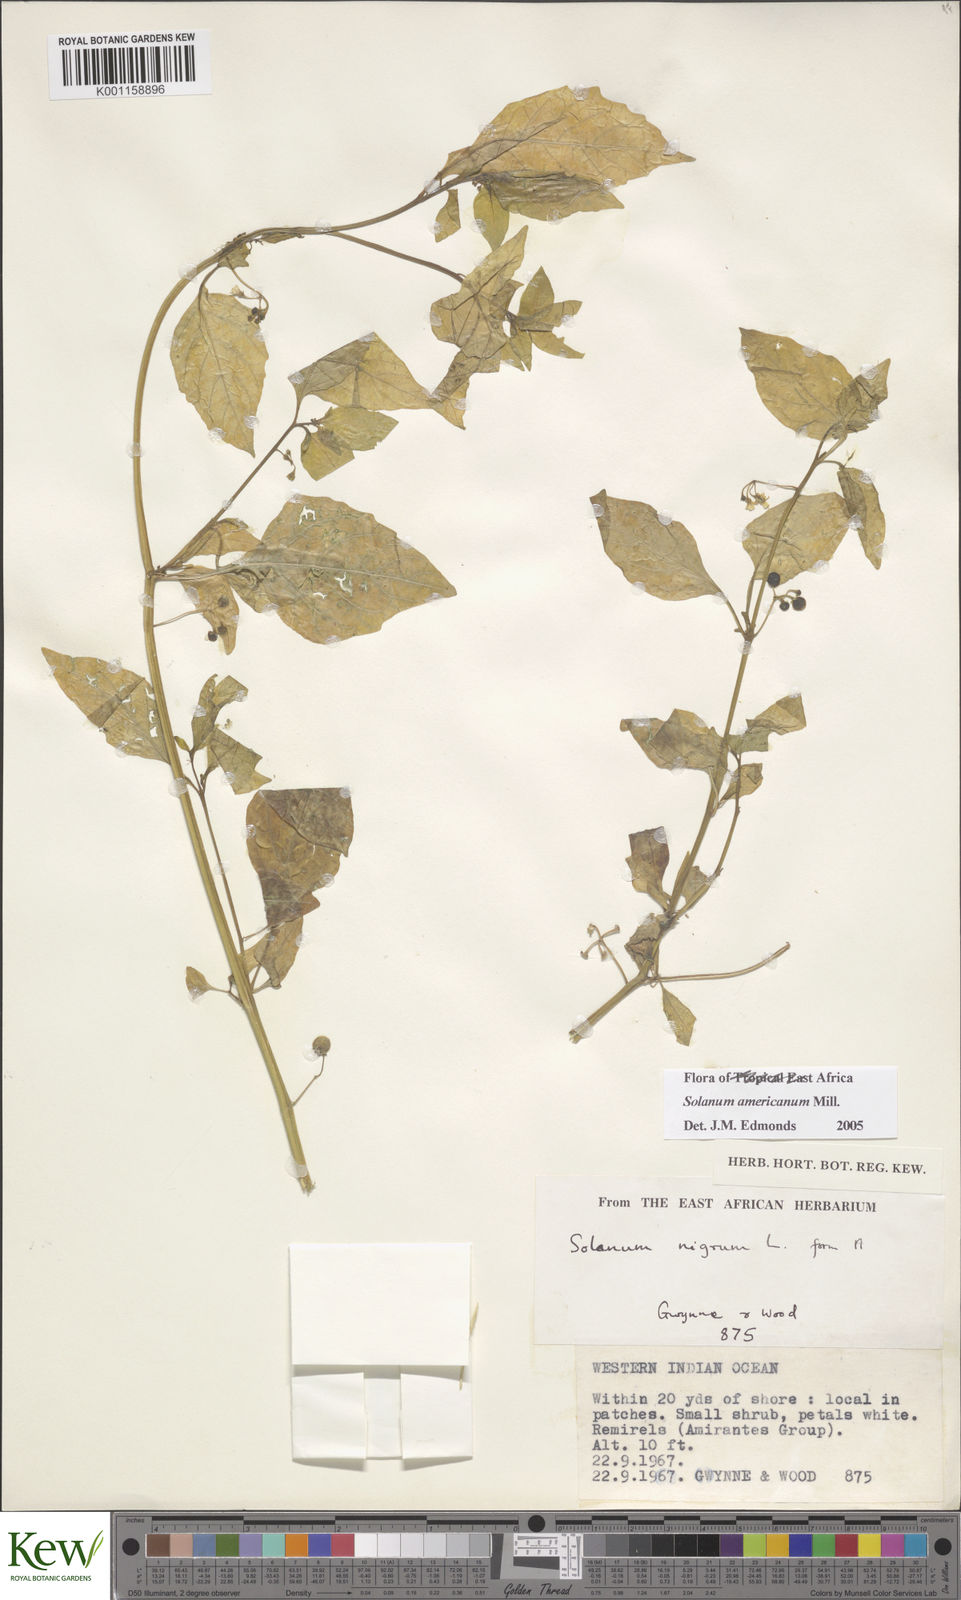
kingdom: Plantae
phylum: Tracheophyta
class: Magnoliopsida
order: Solanales
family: Solanaceae
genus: Solanum
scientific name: Solanum americanum
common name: American black nightshade
